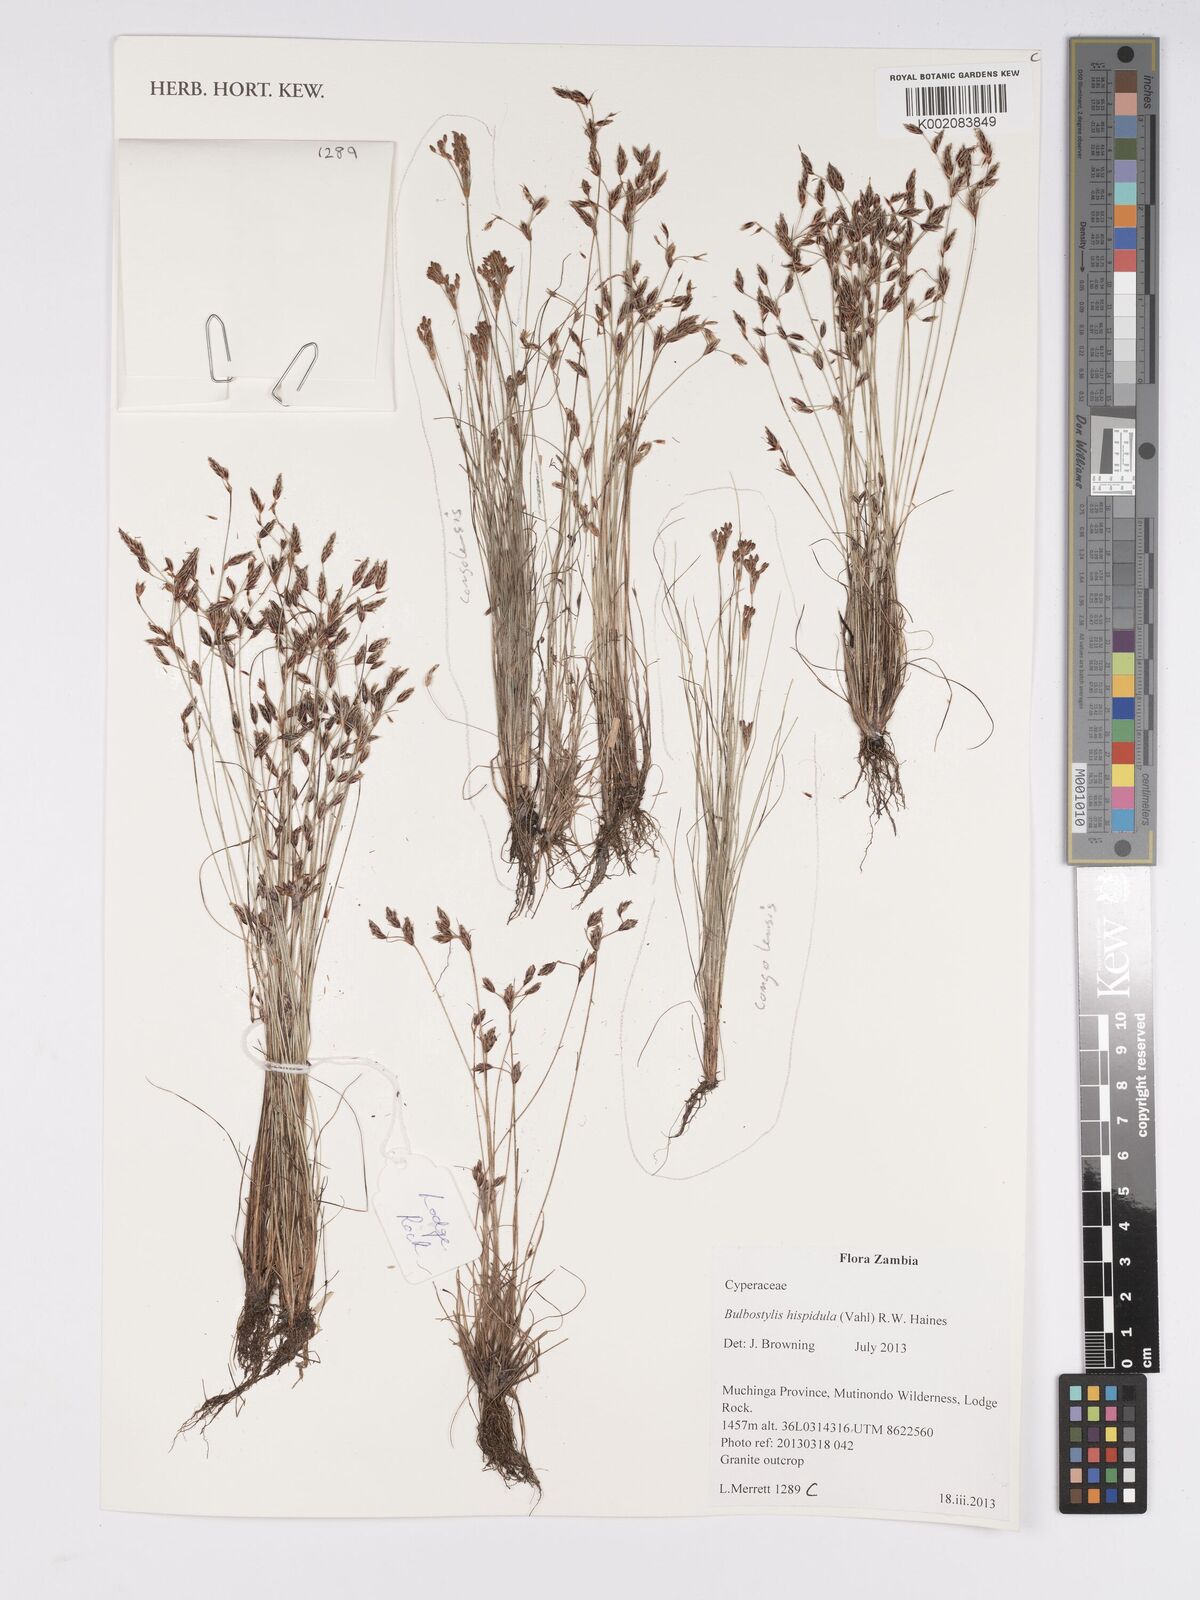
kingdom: Plantae
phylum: Tracheophyta
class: Liliopsida
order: Poales
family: Cyperaceae
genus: Bulbostylis
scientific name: Bulbostylis hispidula
